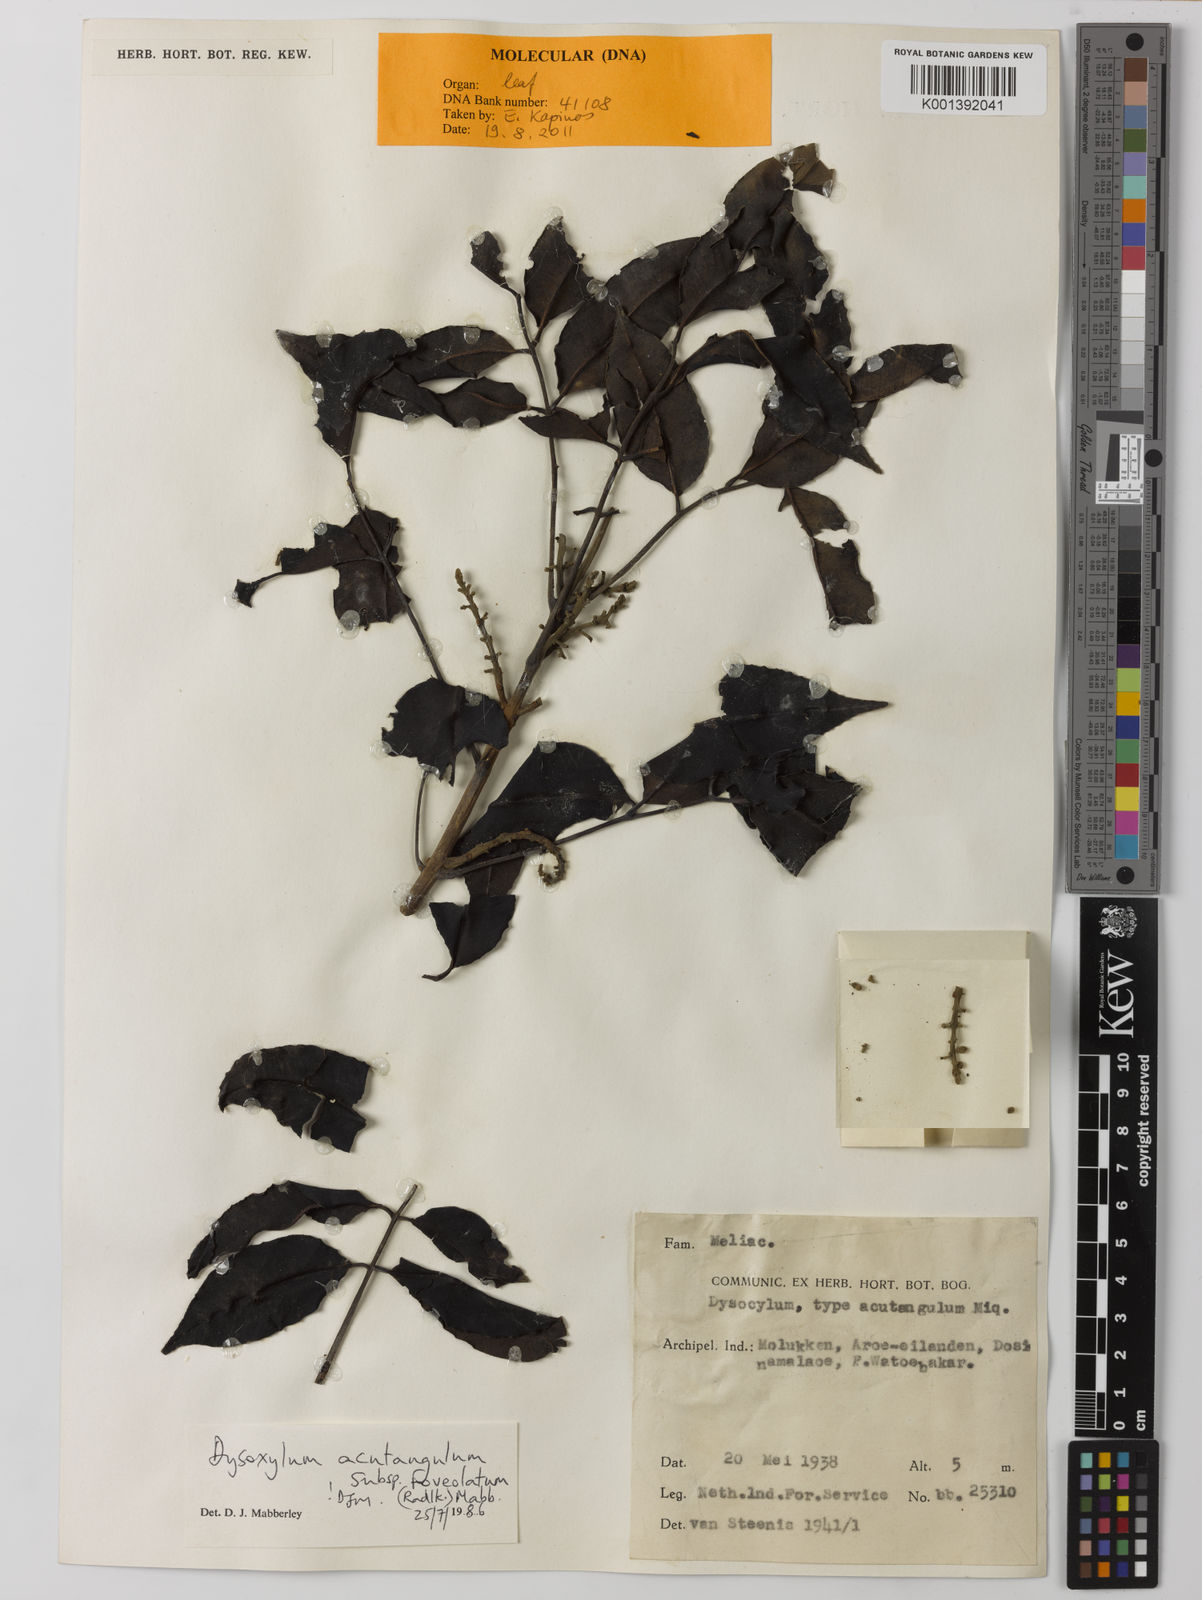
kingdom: Plantae
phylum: Tracheophyta
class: Magnoliopsida
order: Sapindales
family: Meliaceae
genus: Dysoxylum
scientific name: Dysoxylum acutangulum
